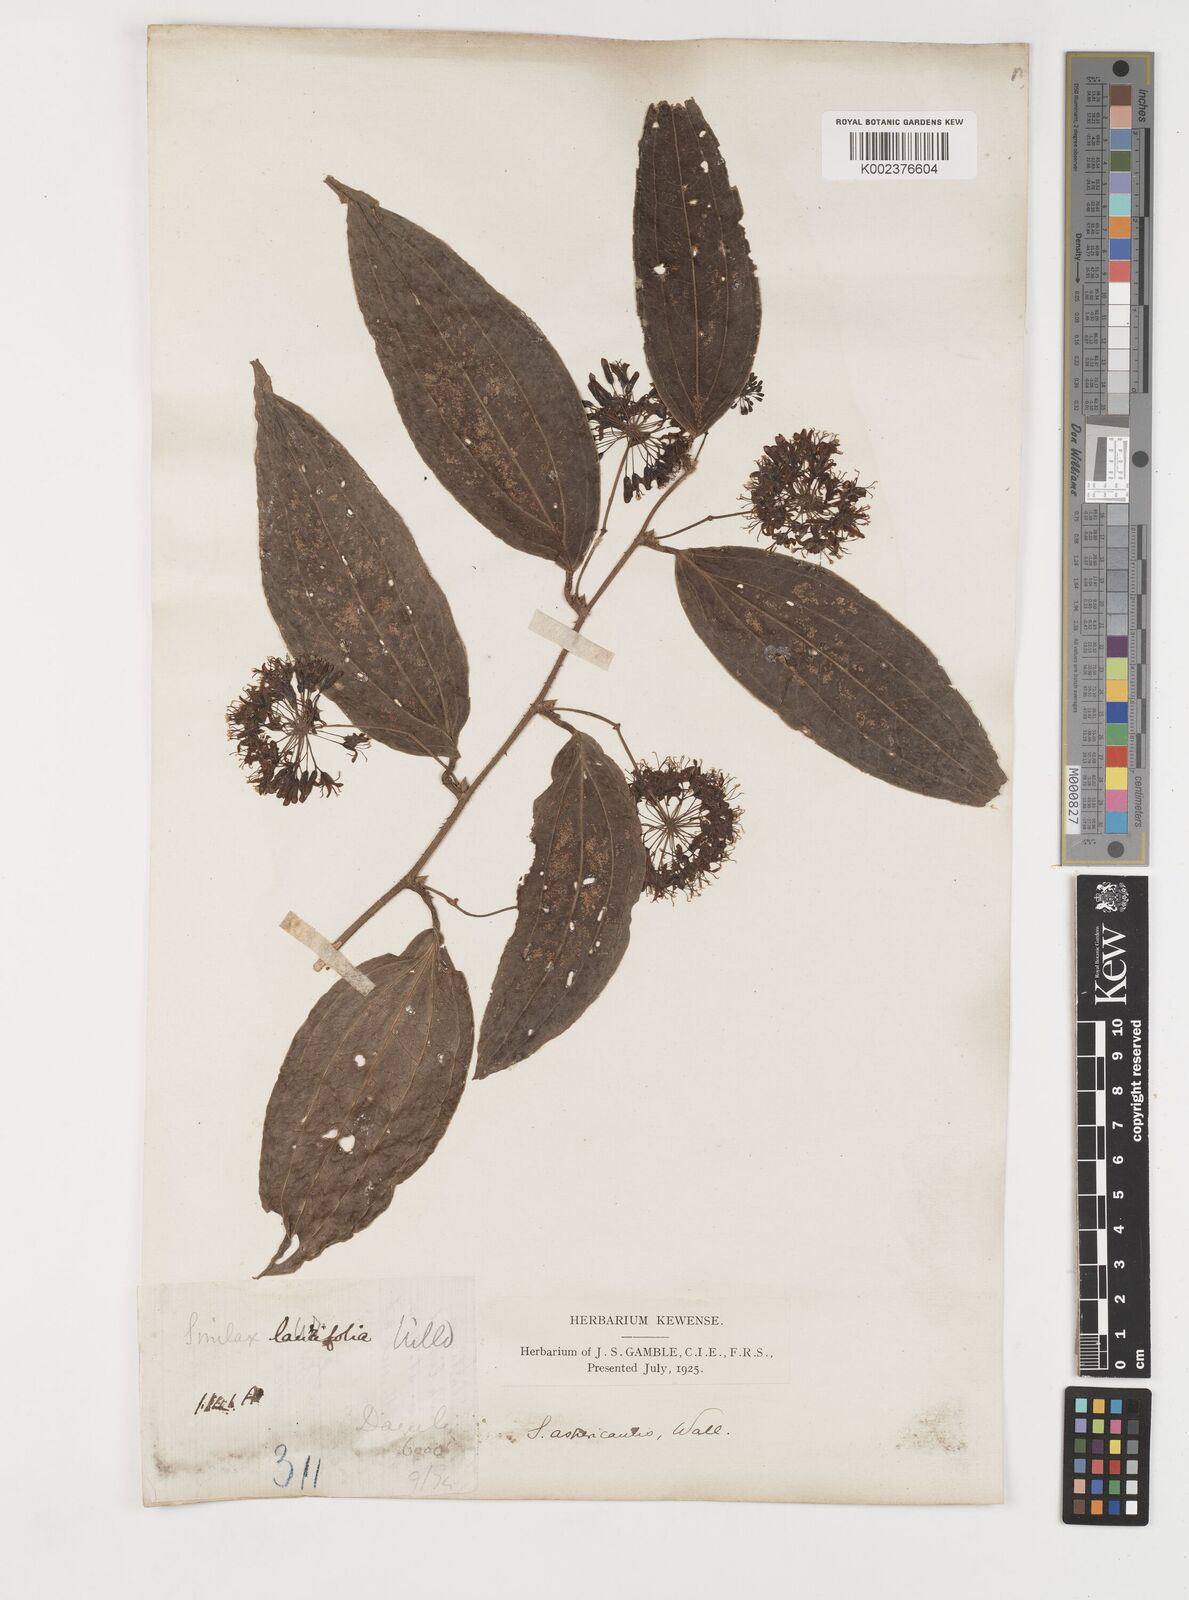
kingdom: Plantae
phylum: Tracheophyta
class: Liliopsida
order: Liliales
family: Smilacaceae
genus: Smilax
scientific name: Smilax aspericaulis
